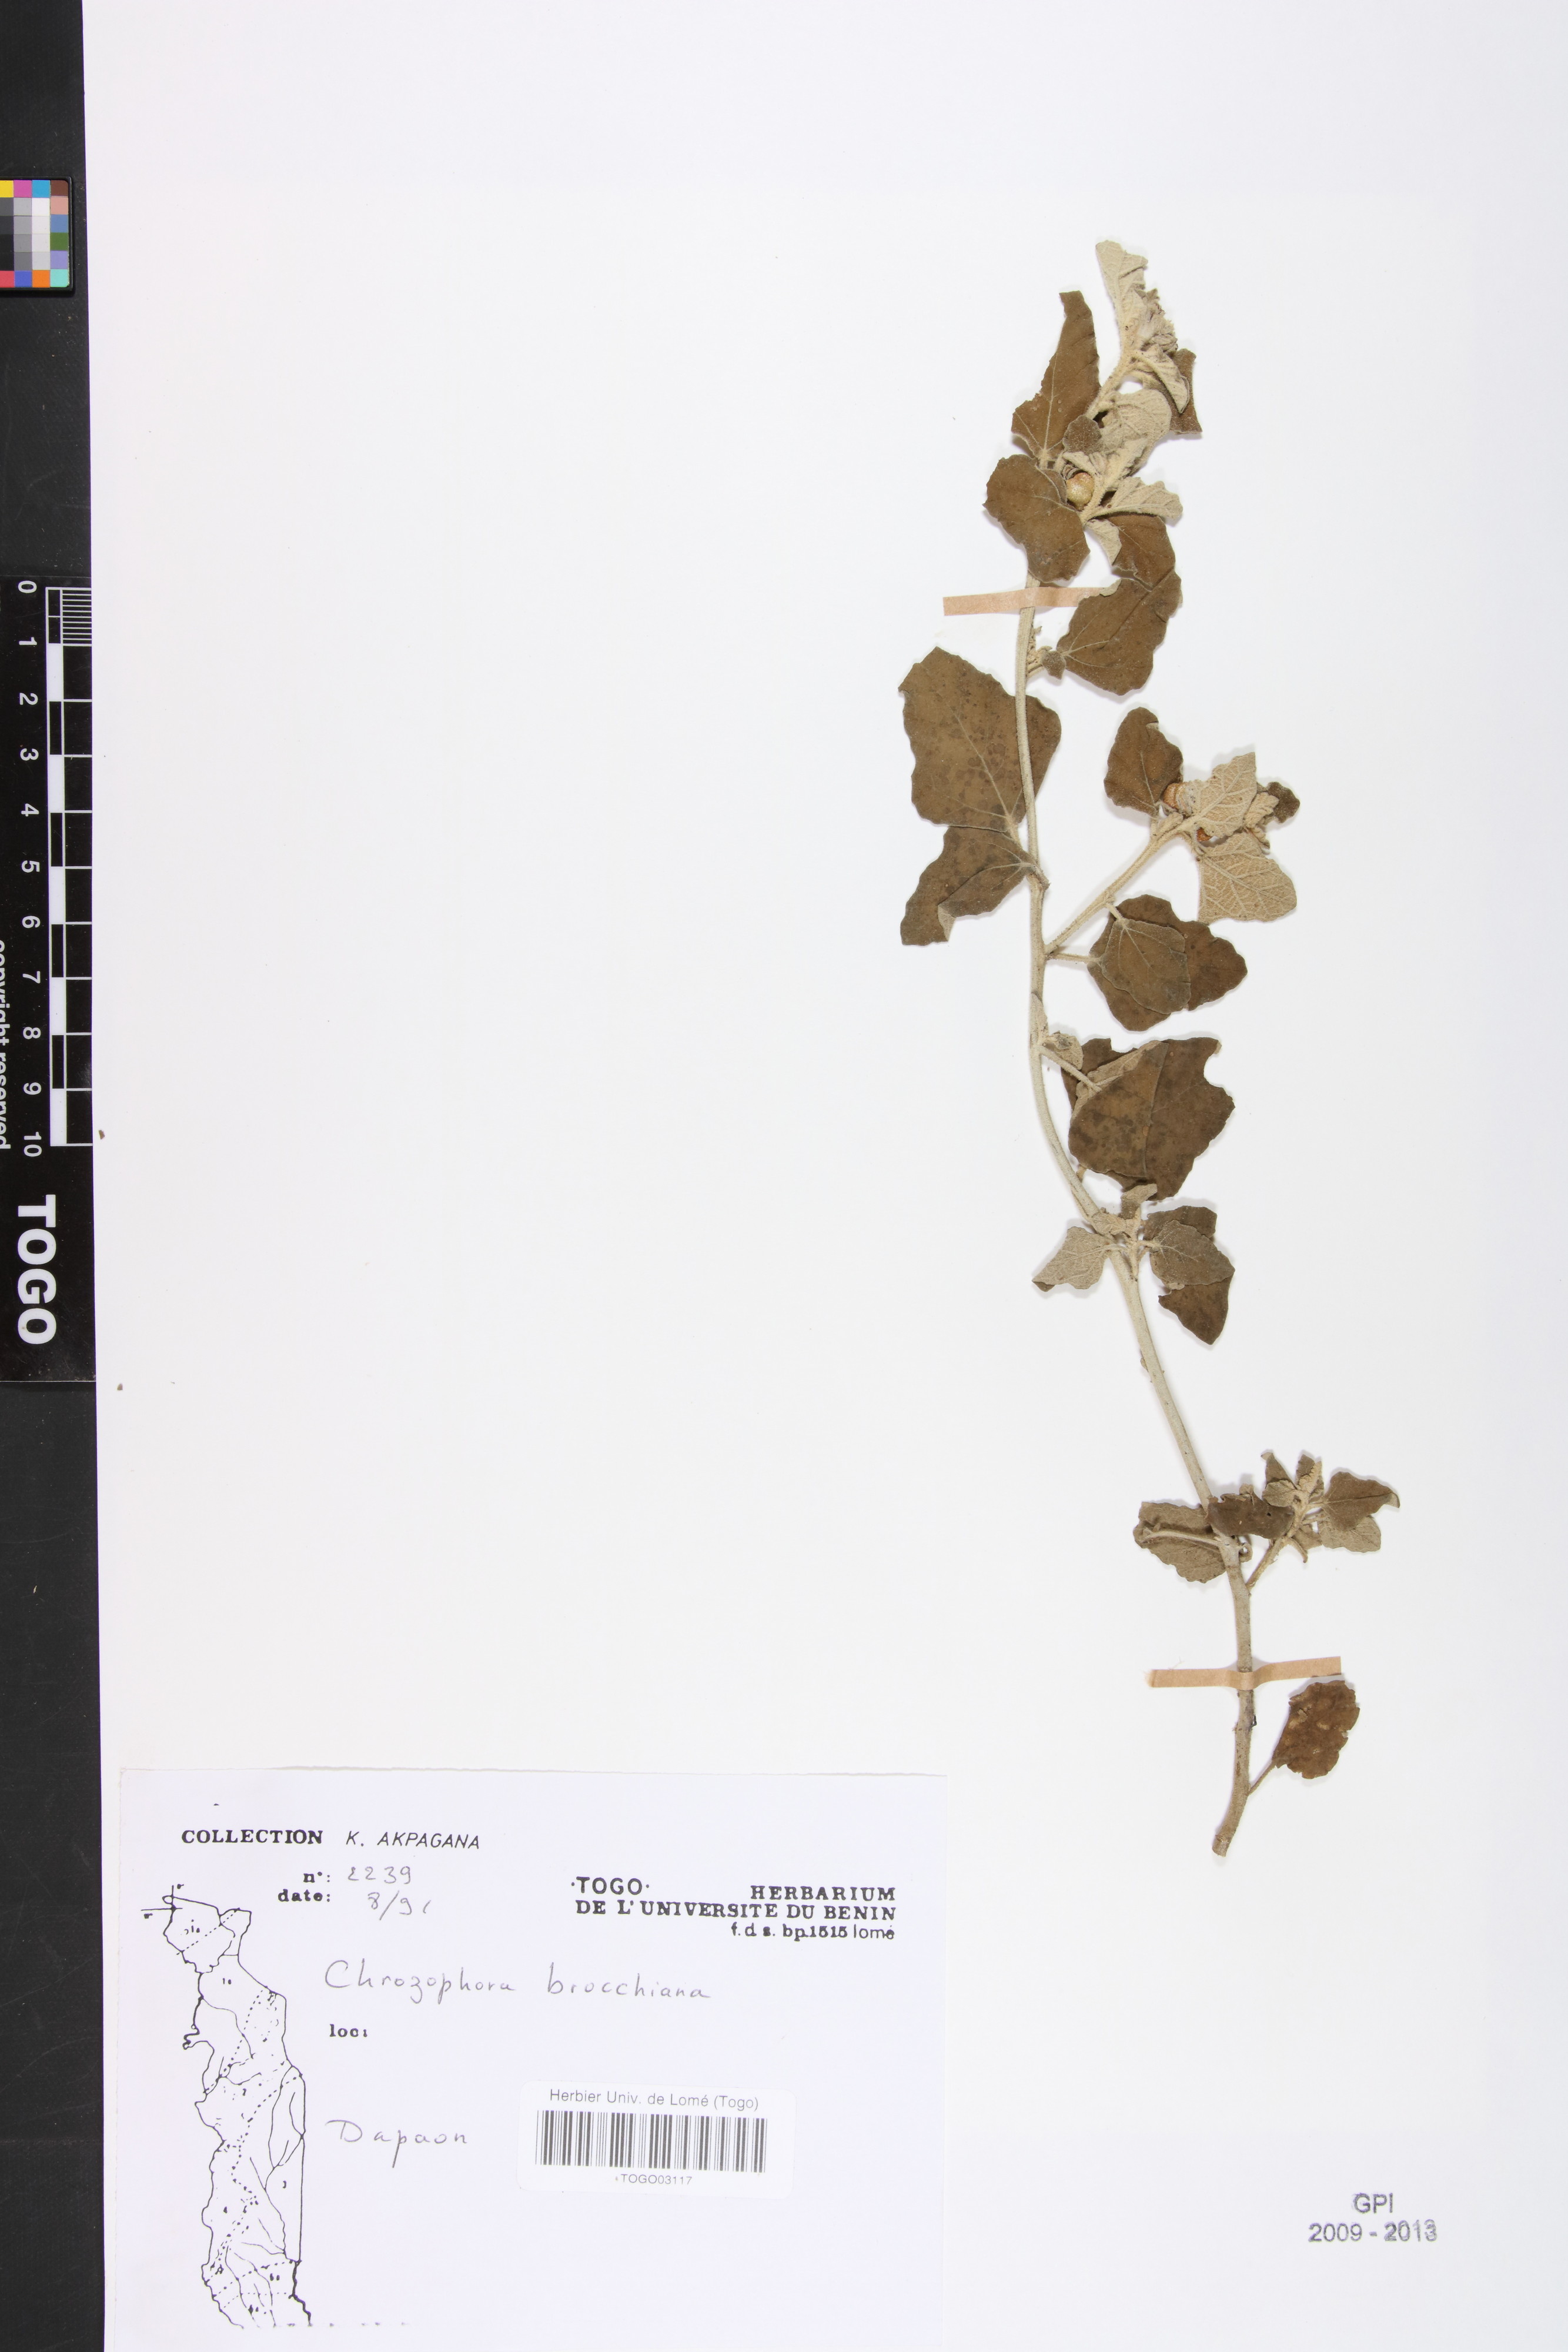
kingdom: Plantae
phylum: Tracheophyta
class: Magnoliopsida
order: Malpighiales
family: Euphorbiaceae
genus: Chrozophora
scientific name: Chrozophora brocchiana
